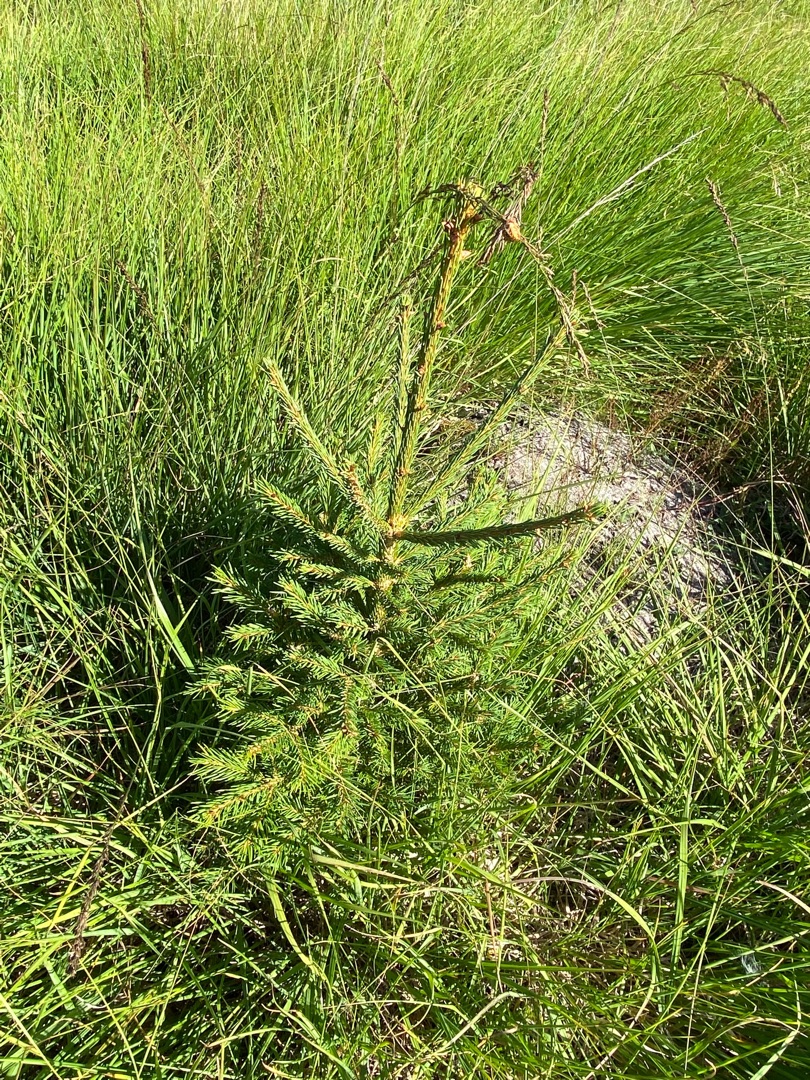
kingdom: Plantae
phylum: Tracheophyta
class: Pinopsida
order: Pinales
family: Pinaceae
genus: Picea
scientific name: Picea abies
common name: Rød-gran
